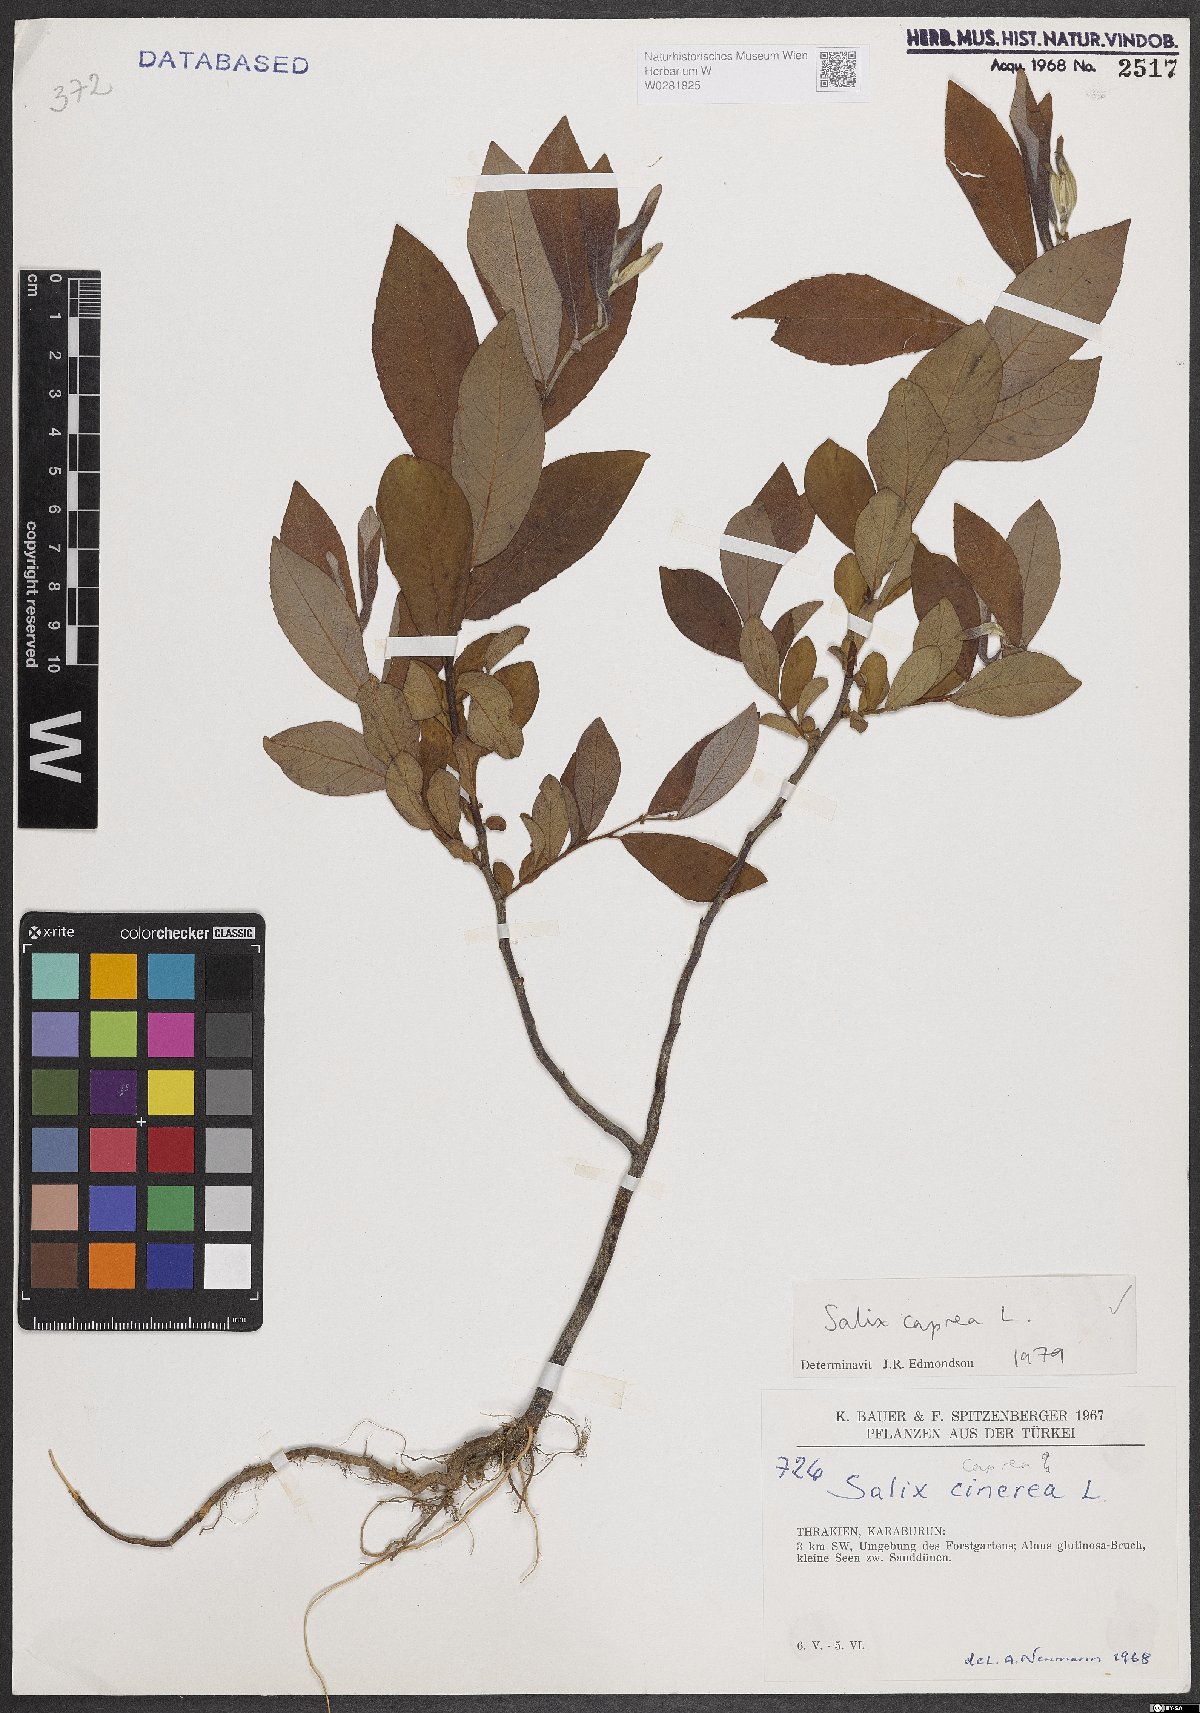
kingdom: Plantae
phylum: Tracheophyta
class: Magnoliopsida
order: Malpighiales
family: Salicaceae
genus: Salix
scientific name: Salix caprea
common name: Goat willow
